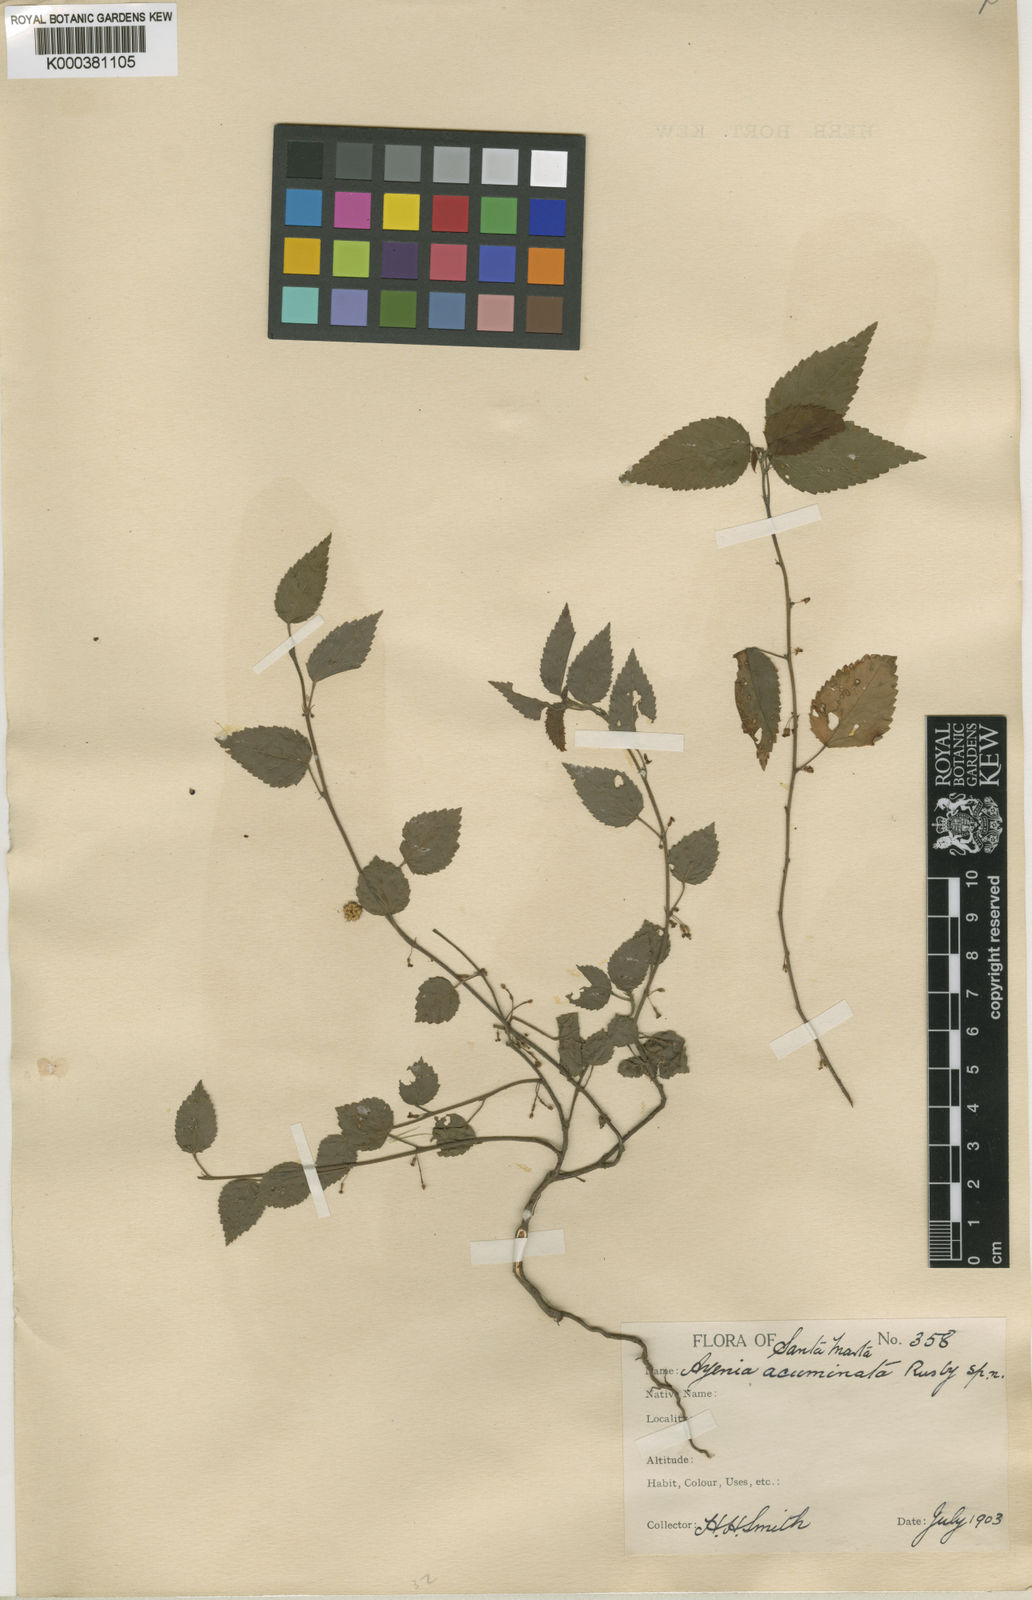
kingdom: Plantae
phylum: Tracheophyta
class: Magnoliopsida
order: Malvales
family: Malvaceae
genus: Ayenia
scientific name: Ayenia acuminata
